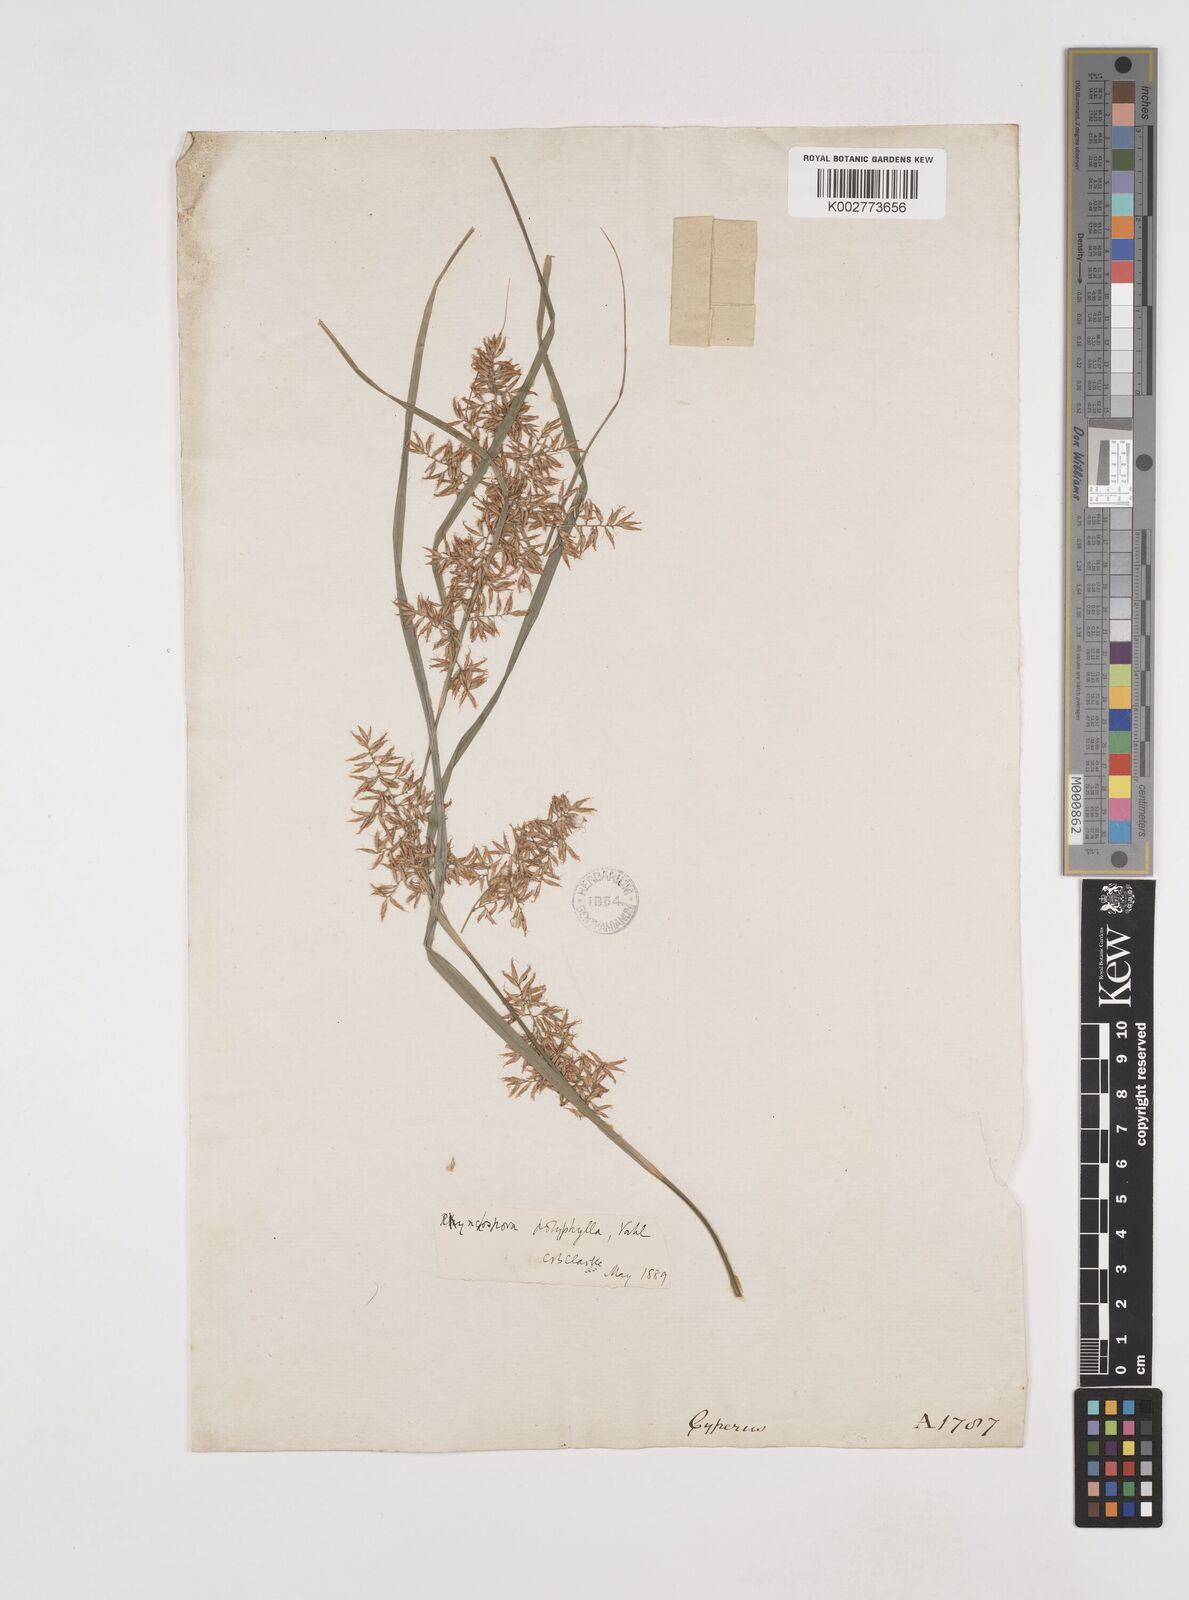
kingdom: Plantae
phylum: Tracheophyta
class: Liliopsida
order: Poales
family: Cyperaceae
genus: Rhynchospora
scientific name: Rhynchospora polyphylla
